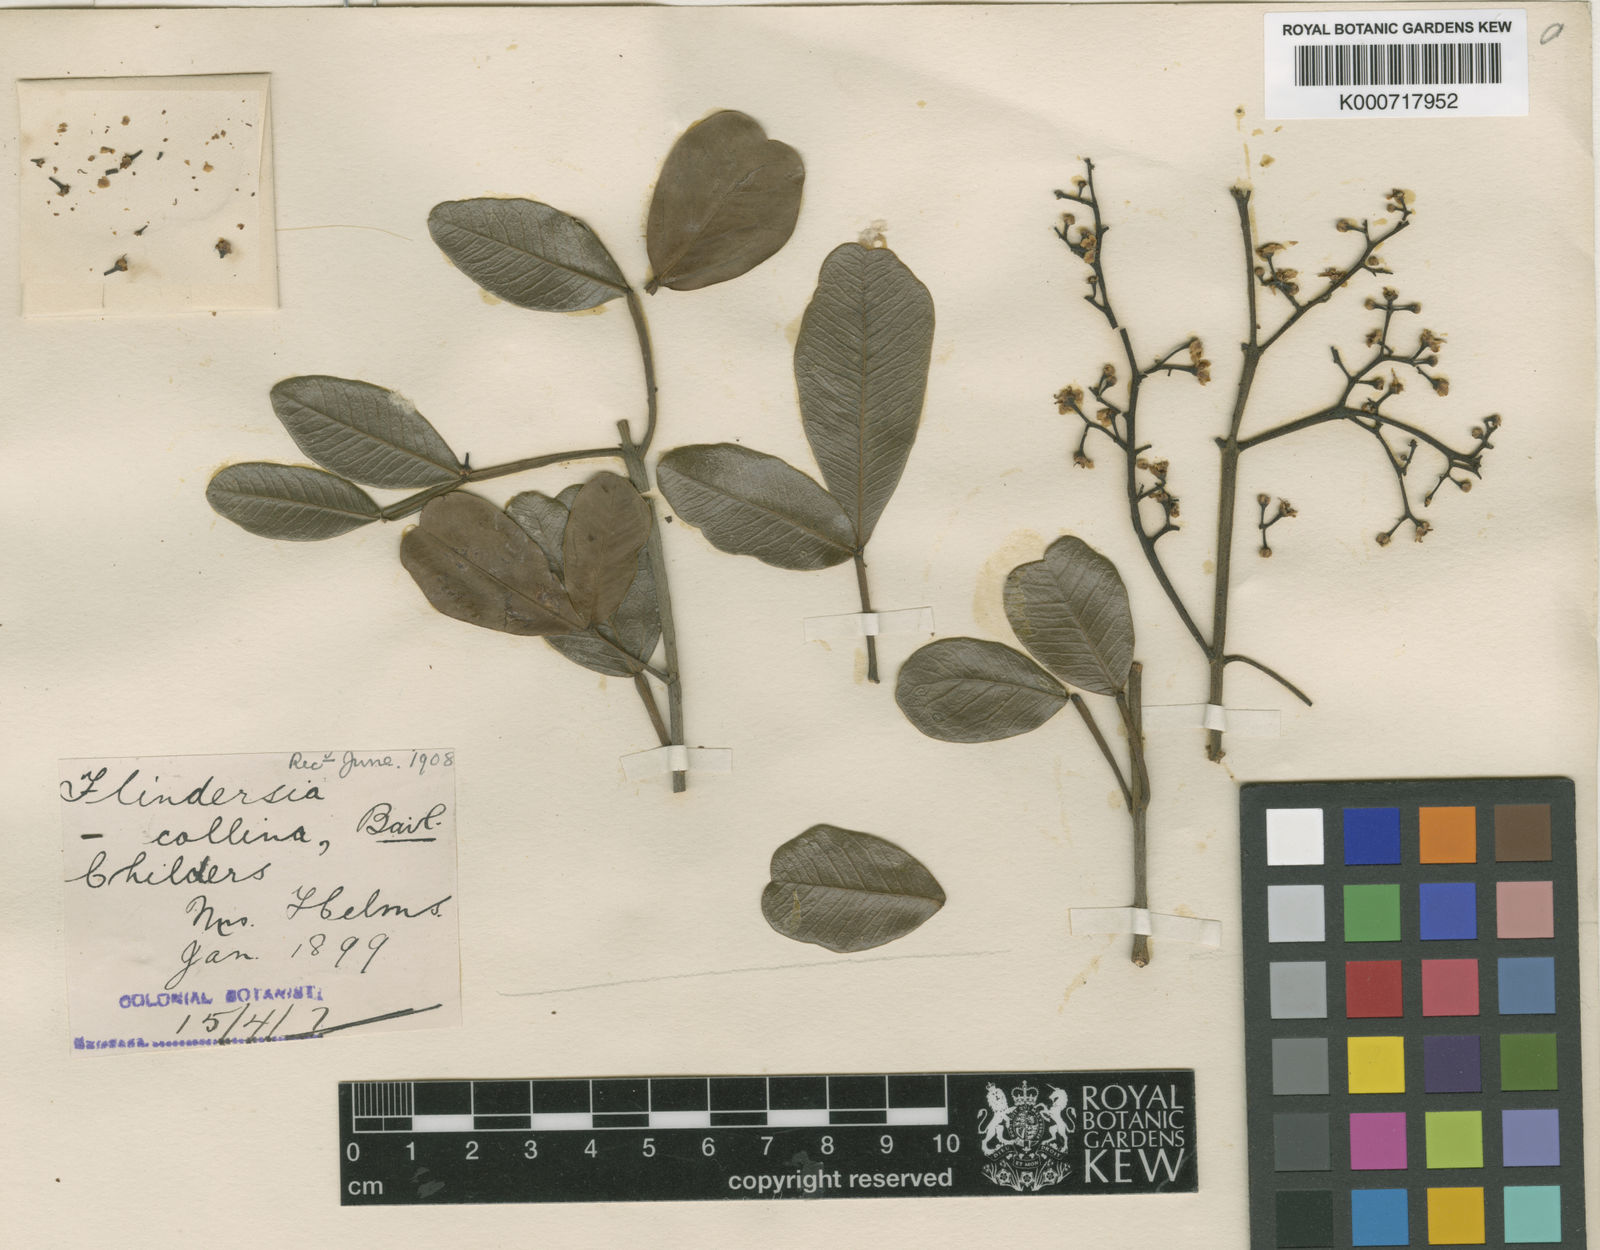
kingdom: Plantae
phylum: Tracheophyta
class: Magnoliopsida
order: Sapindales
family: Rutaceae
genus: Flindersia
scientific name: Flindersia collina
